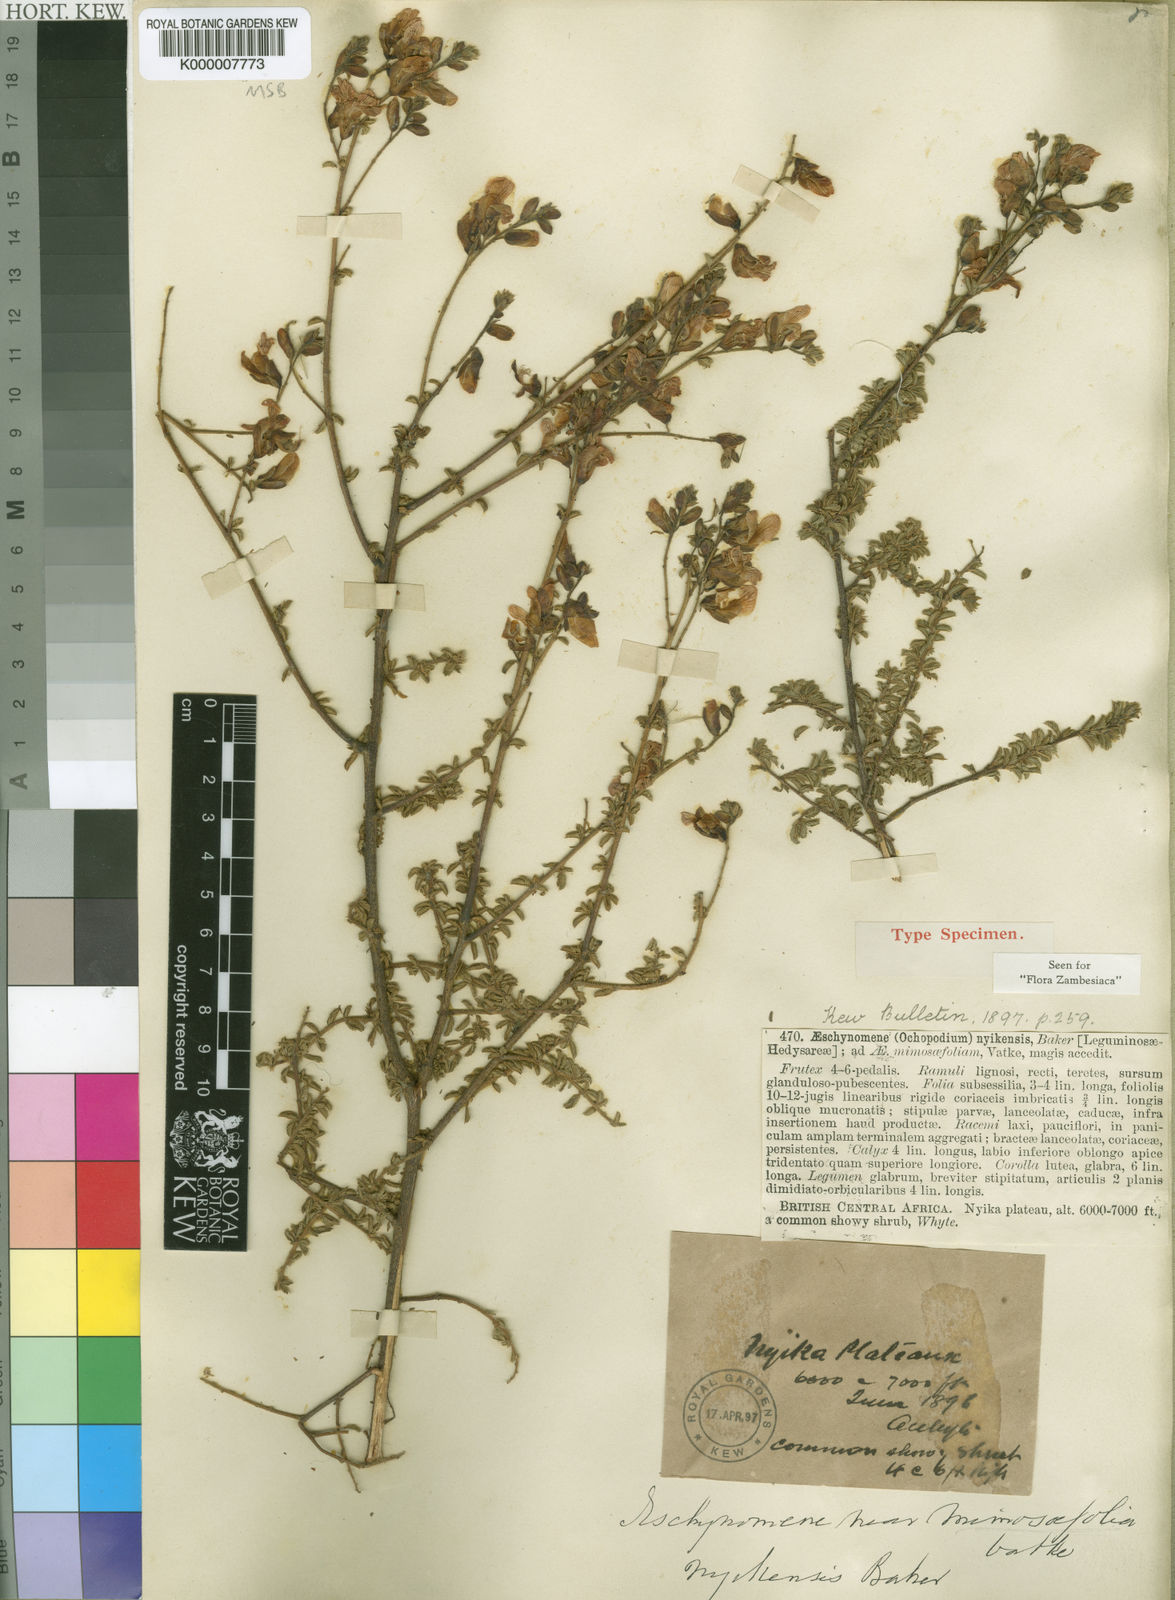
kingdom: Plantae
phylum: Tracheophyta
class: Magnoliopsida
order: Fabales
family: Fabaceae
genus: Aeschynomene
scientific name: Aeschynomene nyikensis
